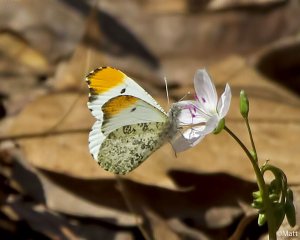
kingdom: Animalia
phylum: Arthropoda
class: Insecta
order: Lepidoptera
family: Pieridae
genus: Anthocharis
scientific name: Anthocharis midea
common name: Falcate Orangetip
